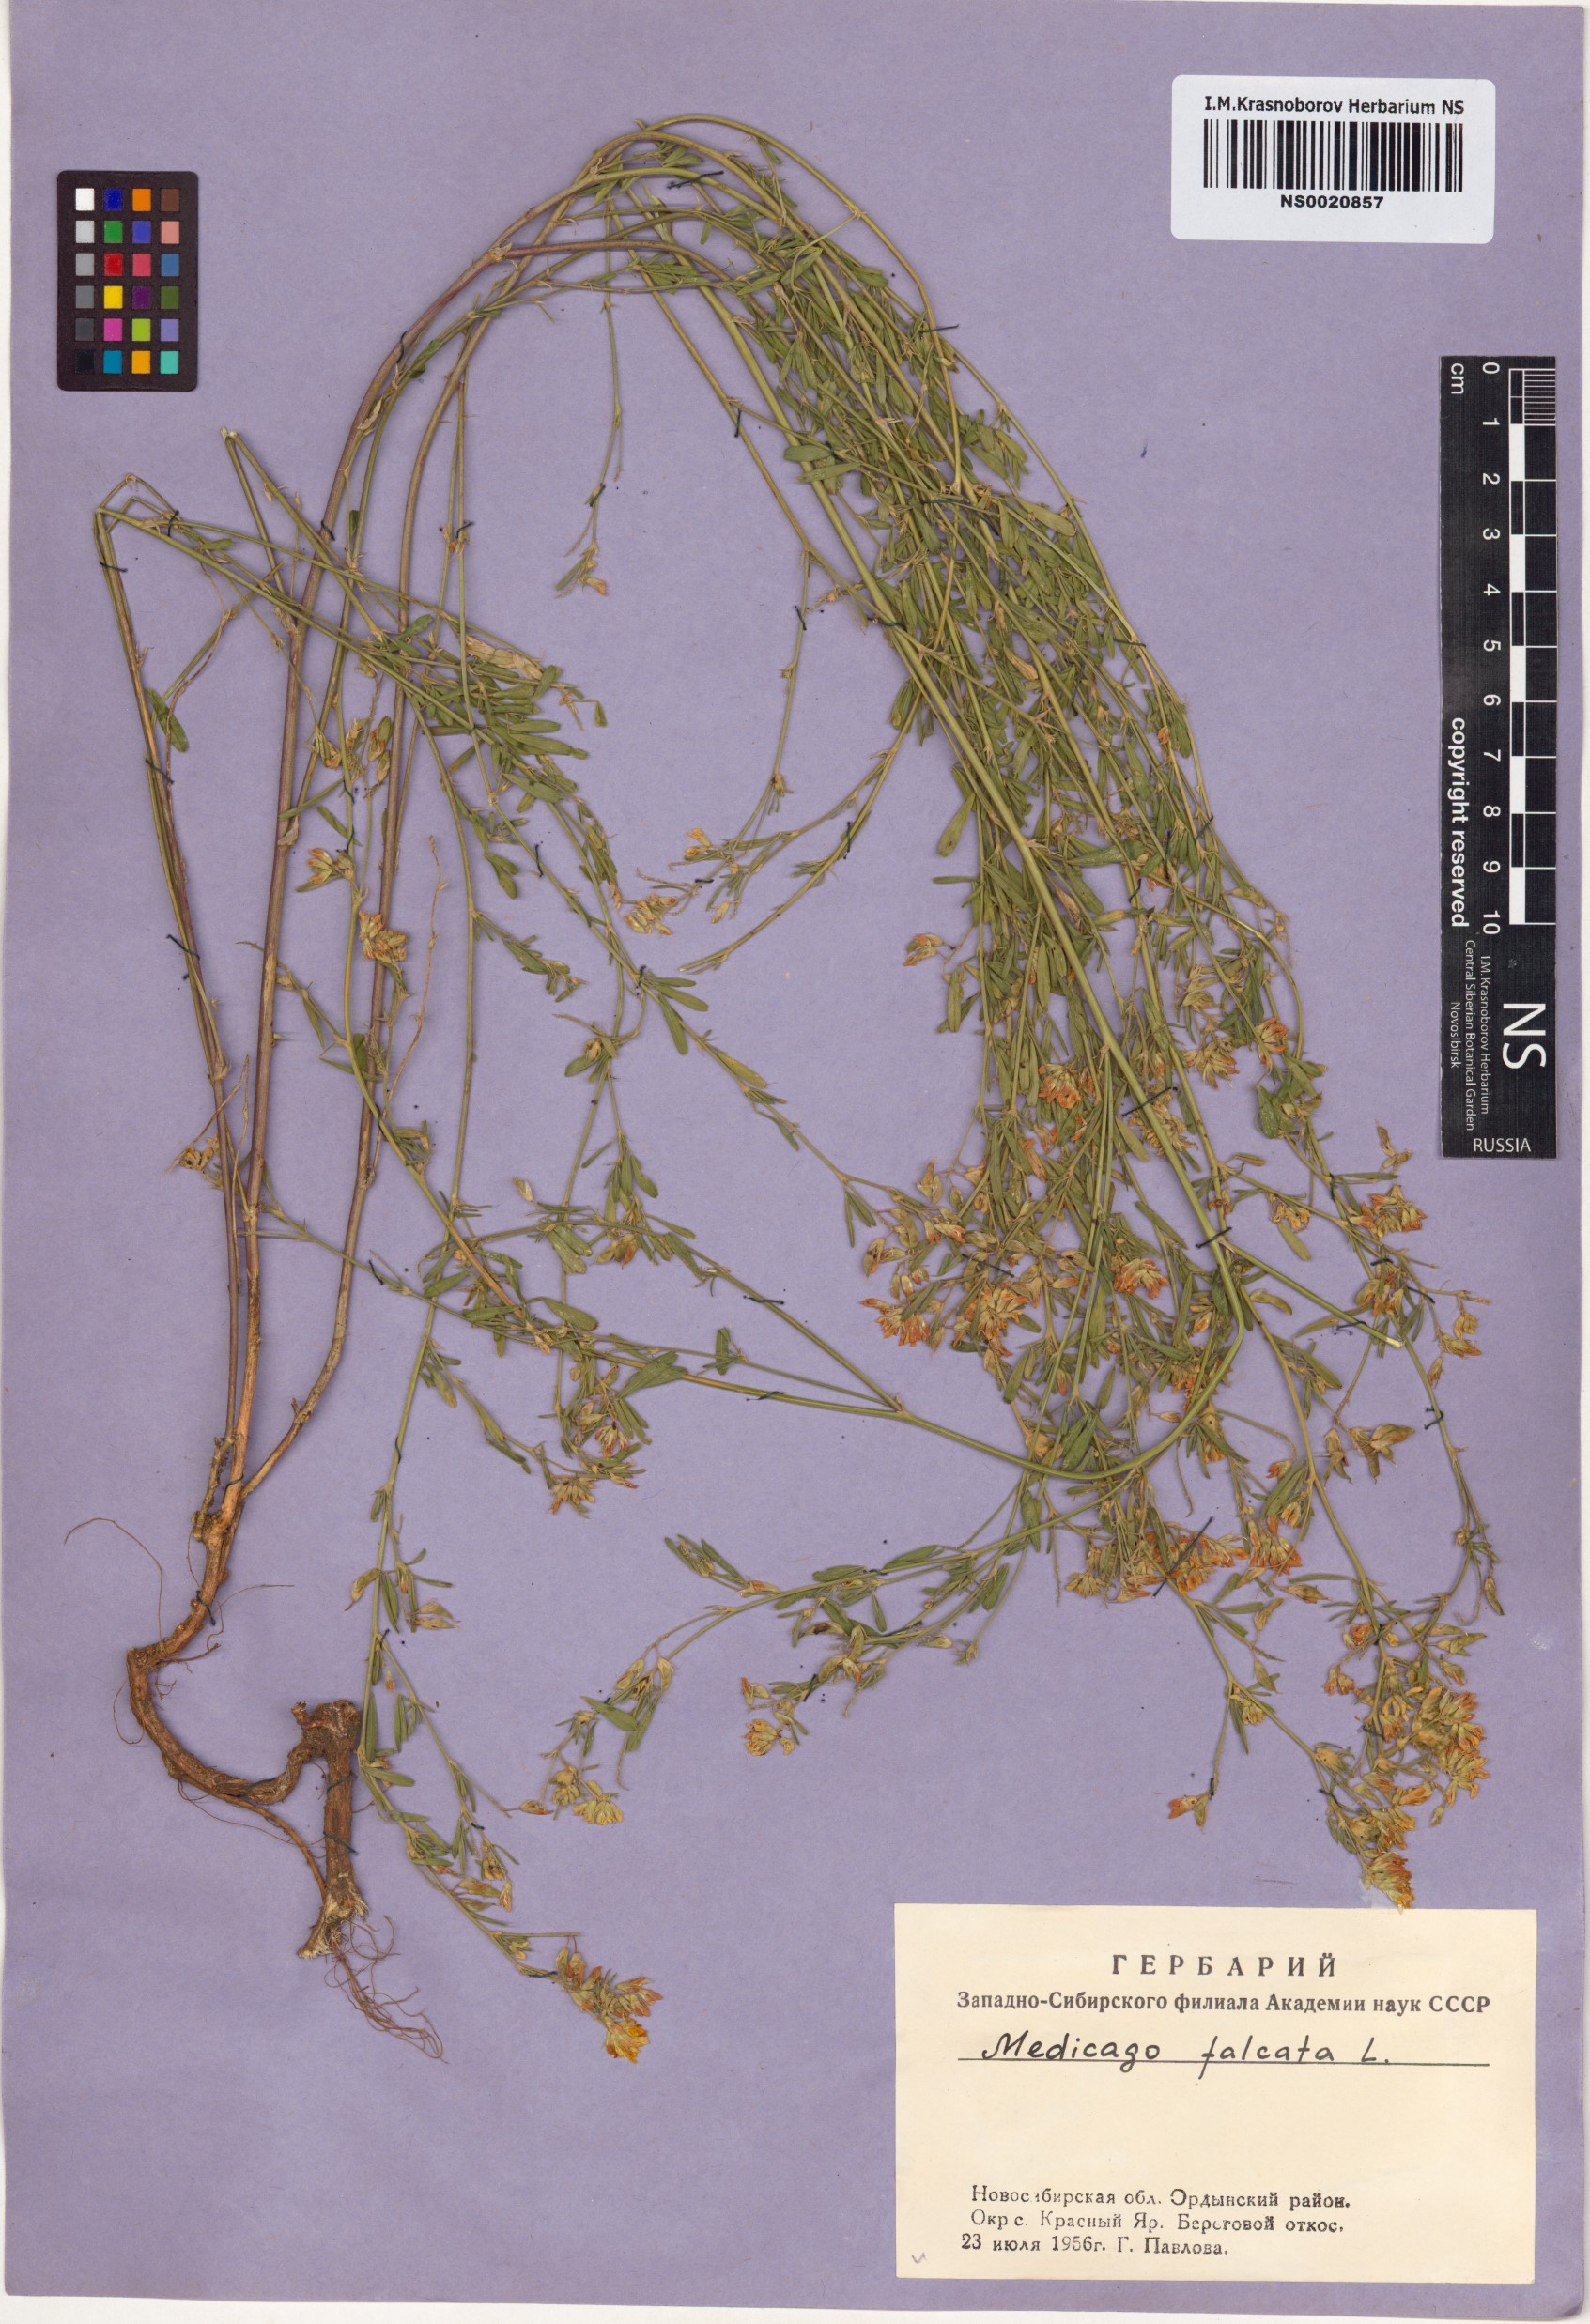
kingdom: Plantae
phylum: Tracheophyta
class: Magnoliopsida
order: Fabales
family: Fabaceae
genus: Medicago
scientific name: Medicago falcata
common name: Sickle medick
